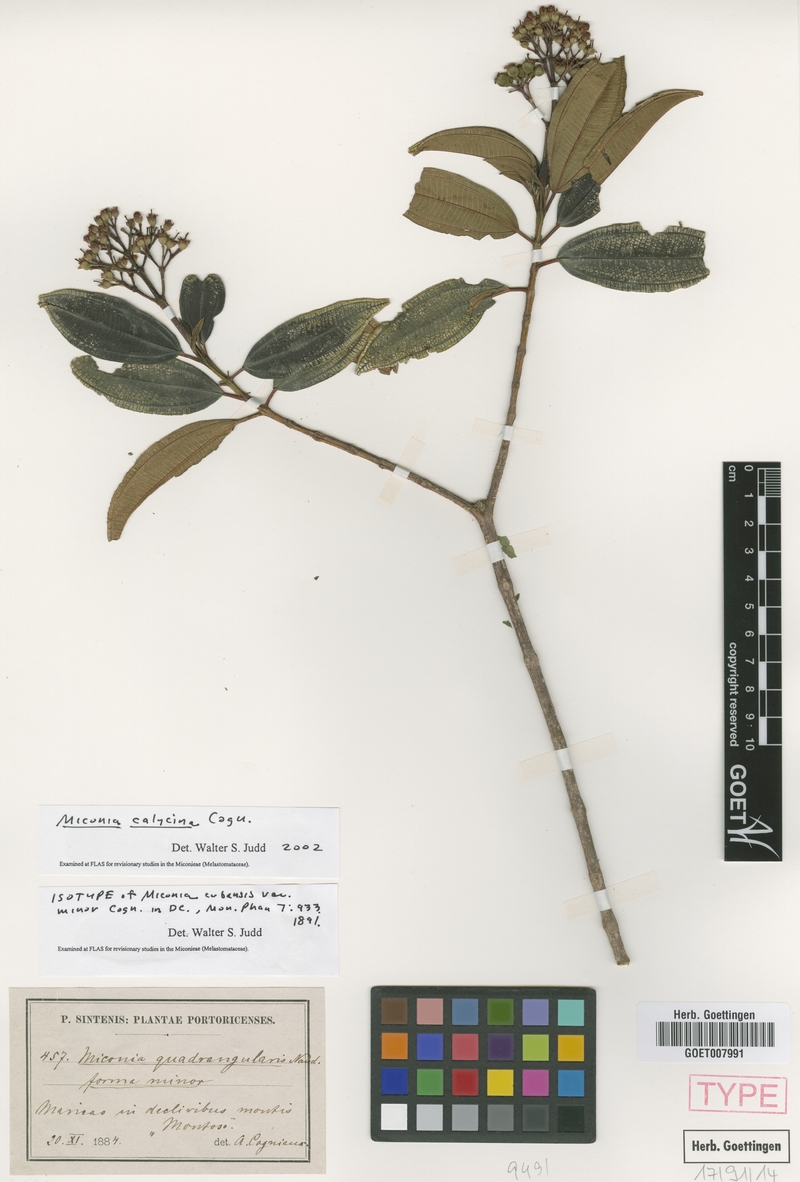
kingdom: Plantae
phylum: Tracheophyta
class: Magnoliopsida
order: Myrtales
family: Melastomataceae
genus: Miconia
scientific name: Miconia calycina
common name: Forest johnnyberry
